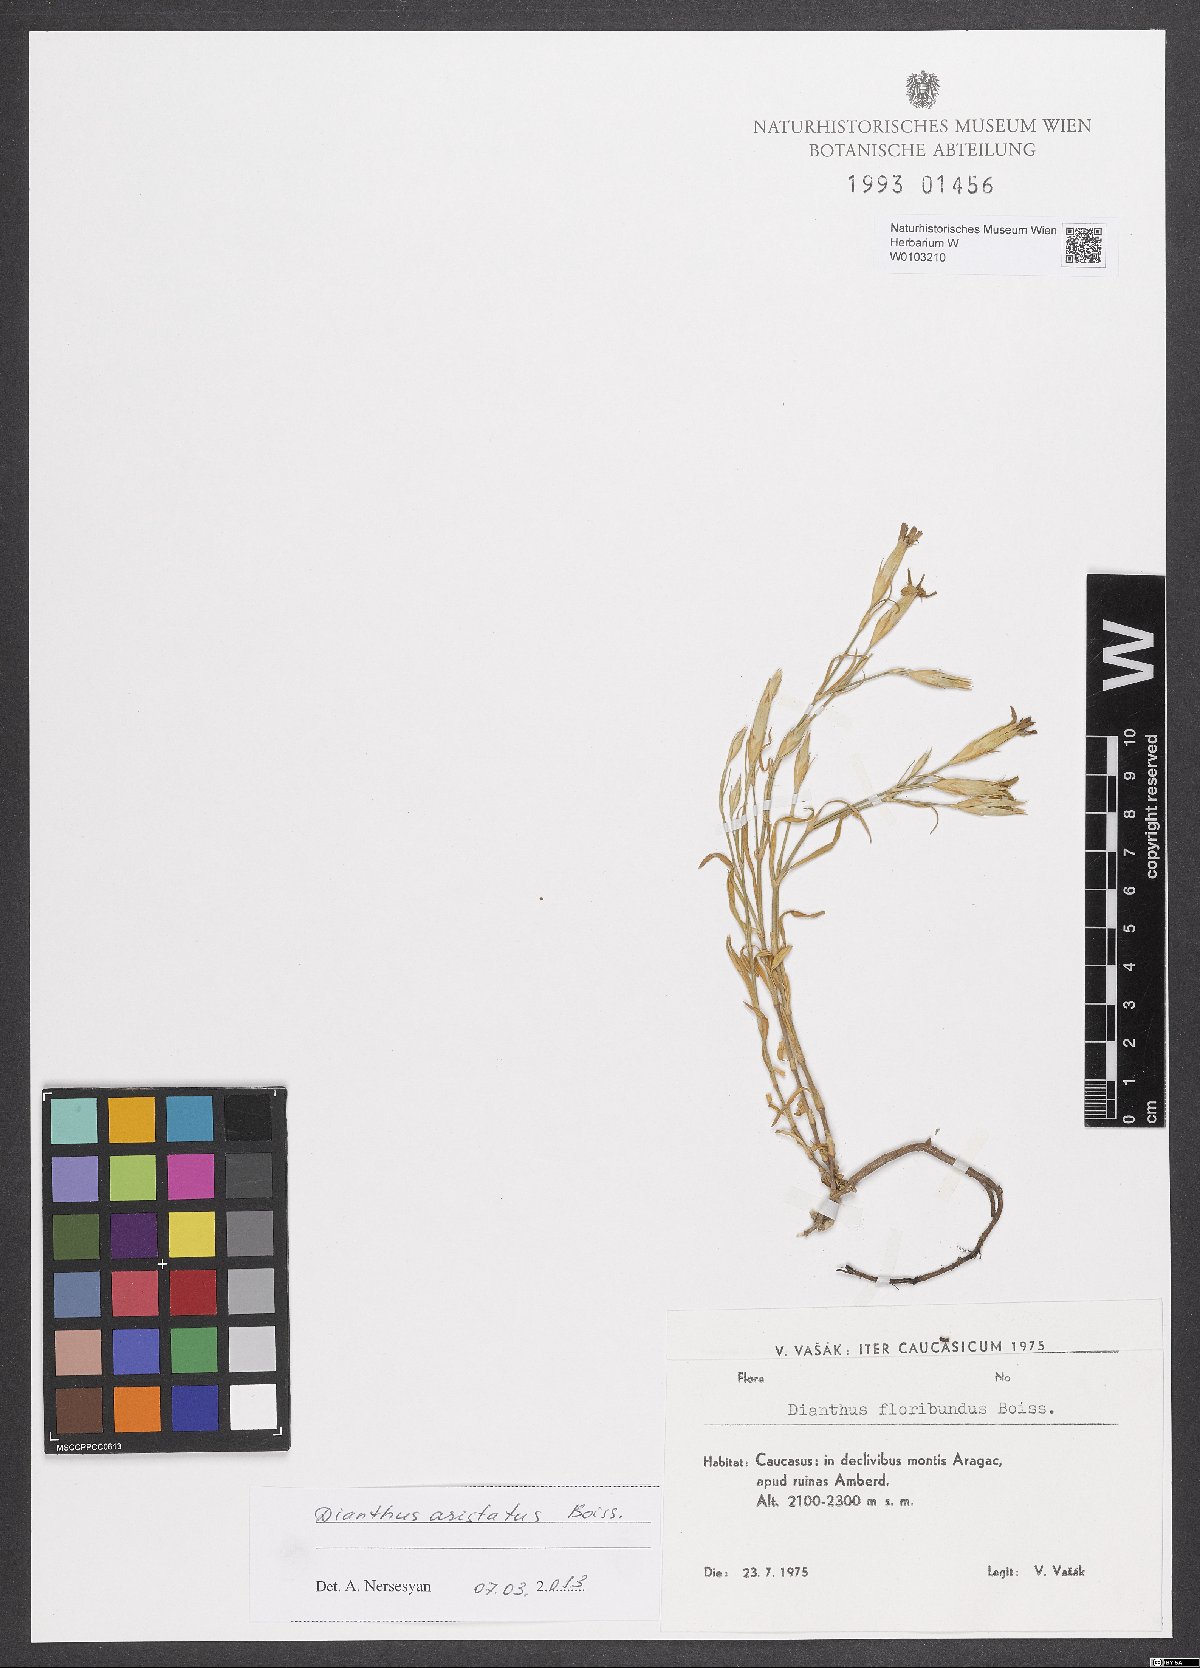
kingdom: Plantae
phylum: Tracheophyta
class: Magnoliopsida
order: Caryophyllales
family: Caryophyllaceae
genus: Dianthus
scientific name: Dianthus aristatus
